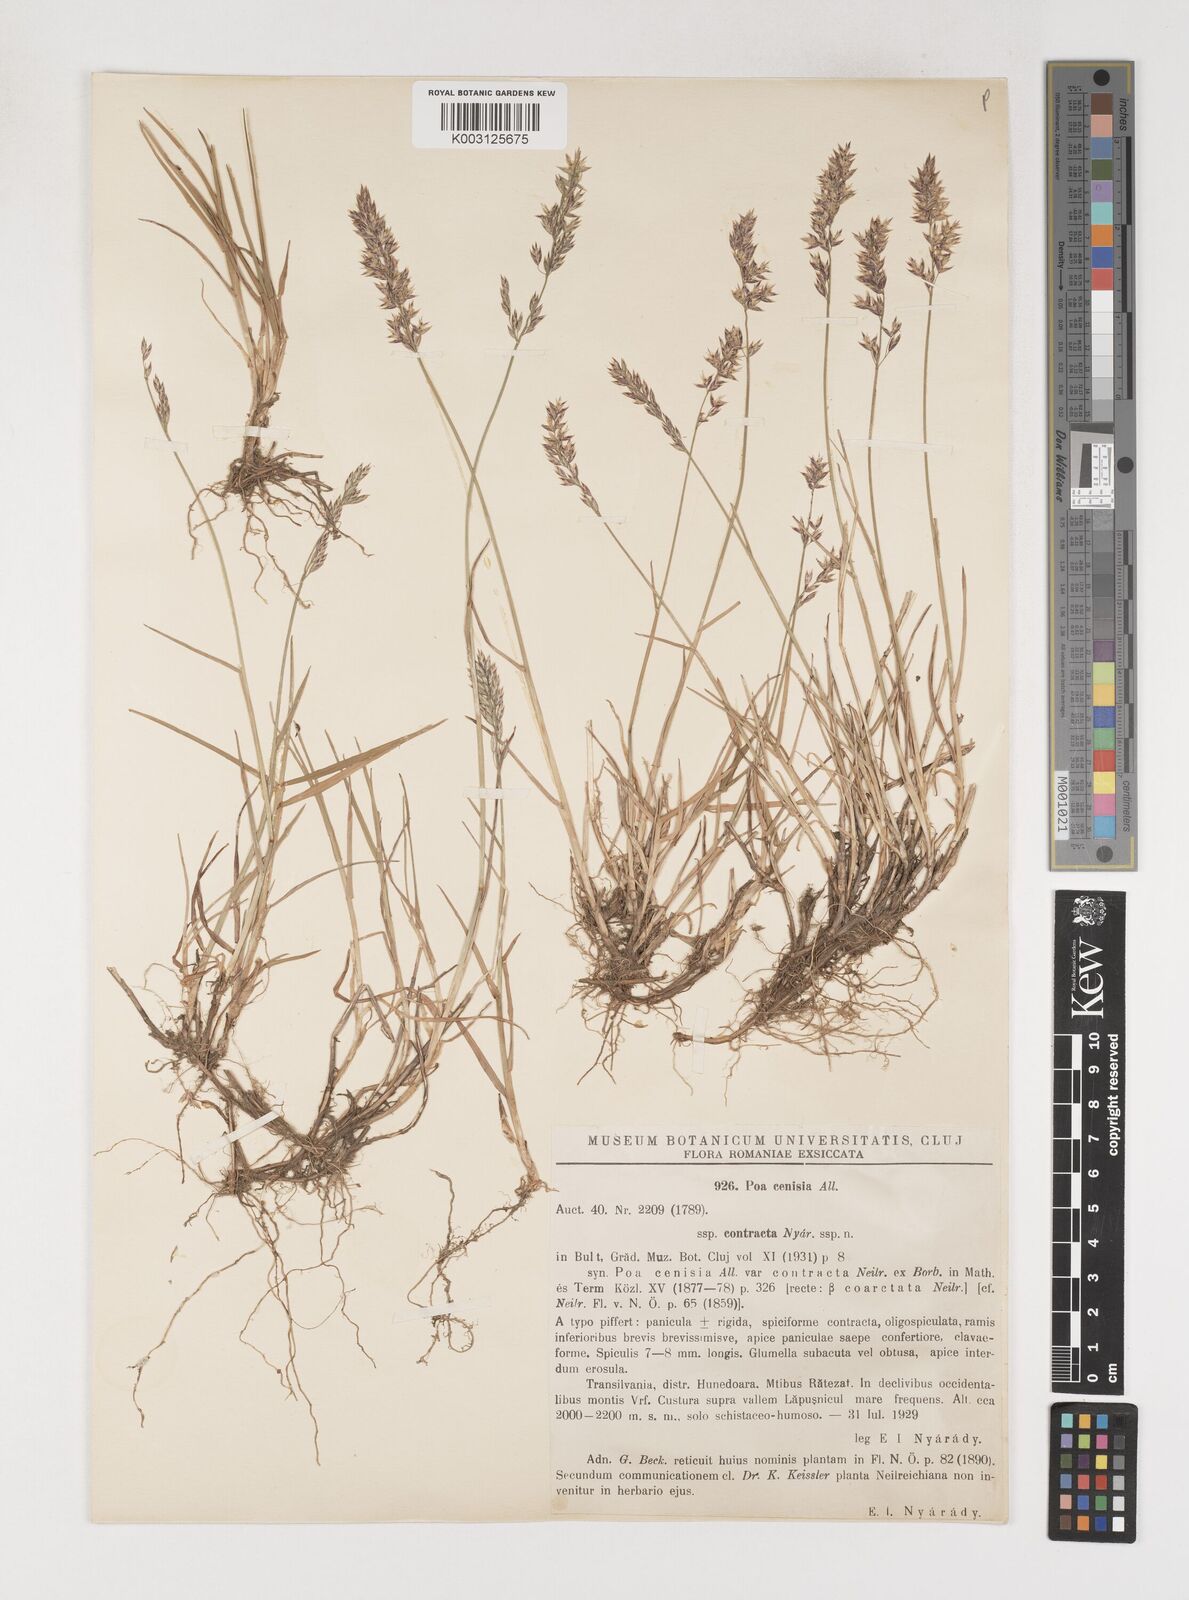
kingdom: Plantae
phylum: Tracheophyta
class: Liliopsida
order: Poales
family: Poaceae
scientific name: Poaceae
